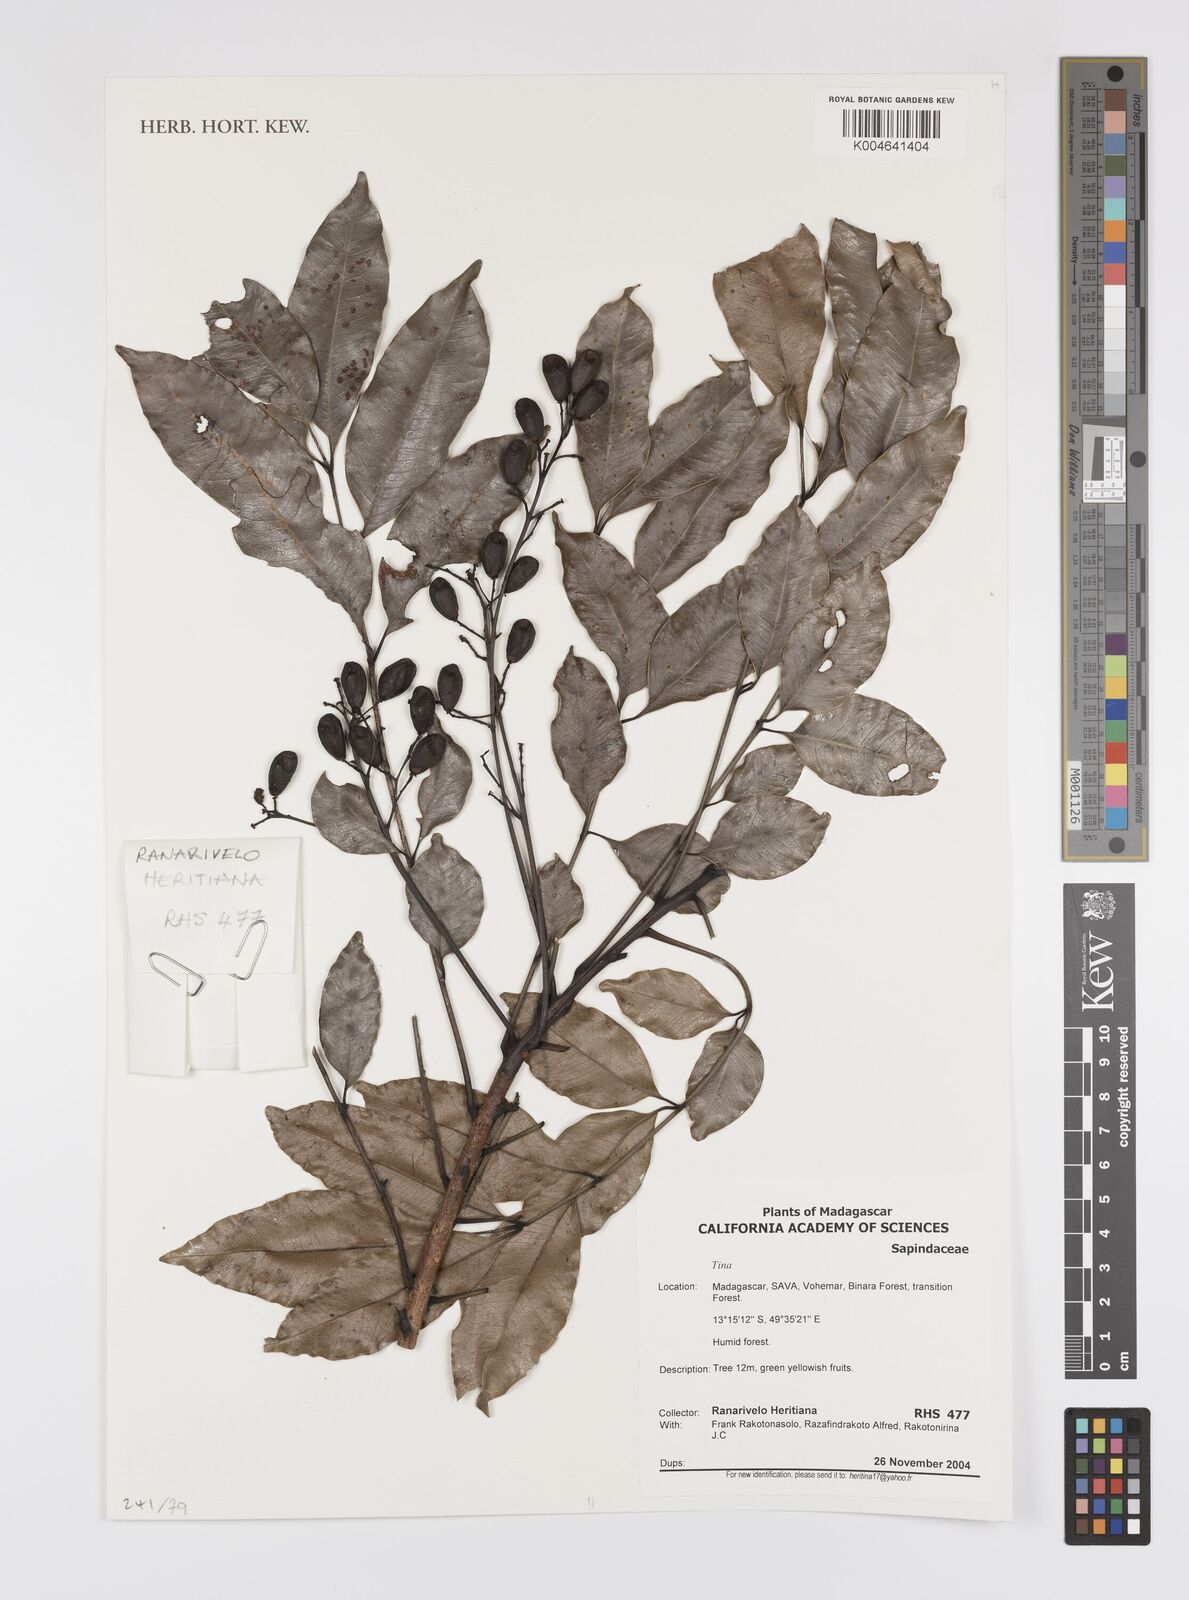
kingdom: Plantae
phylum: Tracheophyta
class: Magnoliopsida
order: Sapindales
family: Sapindaceae
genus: Tina
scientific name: Tina
